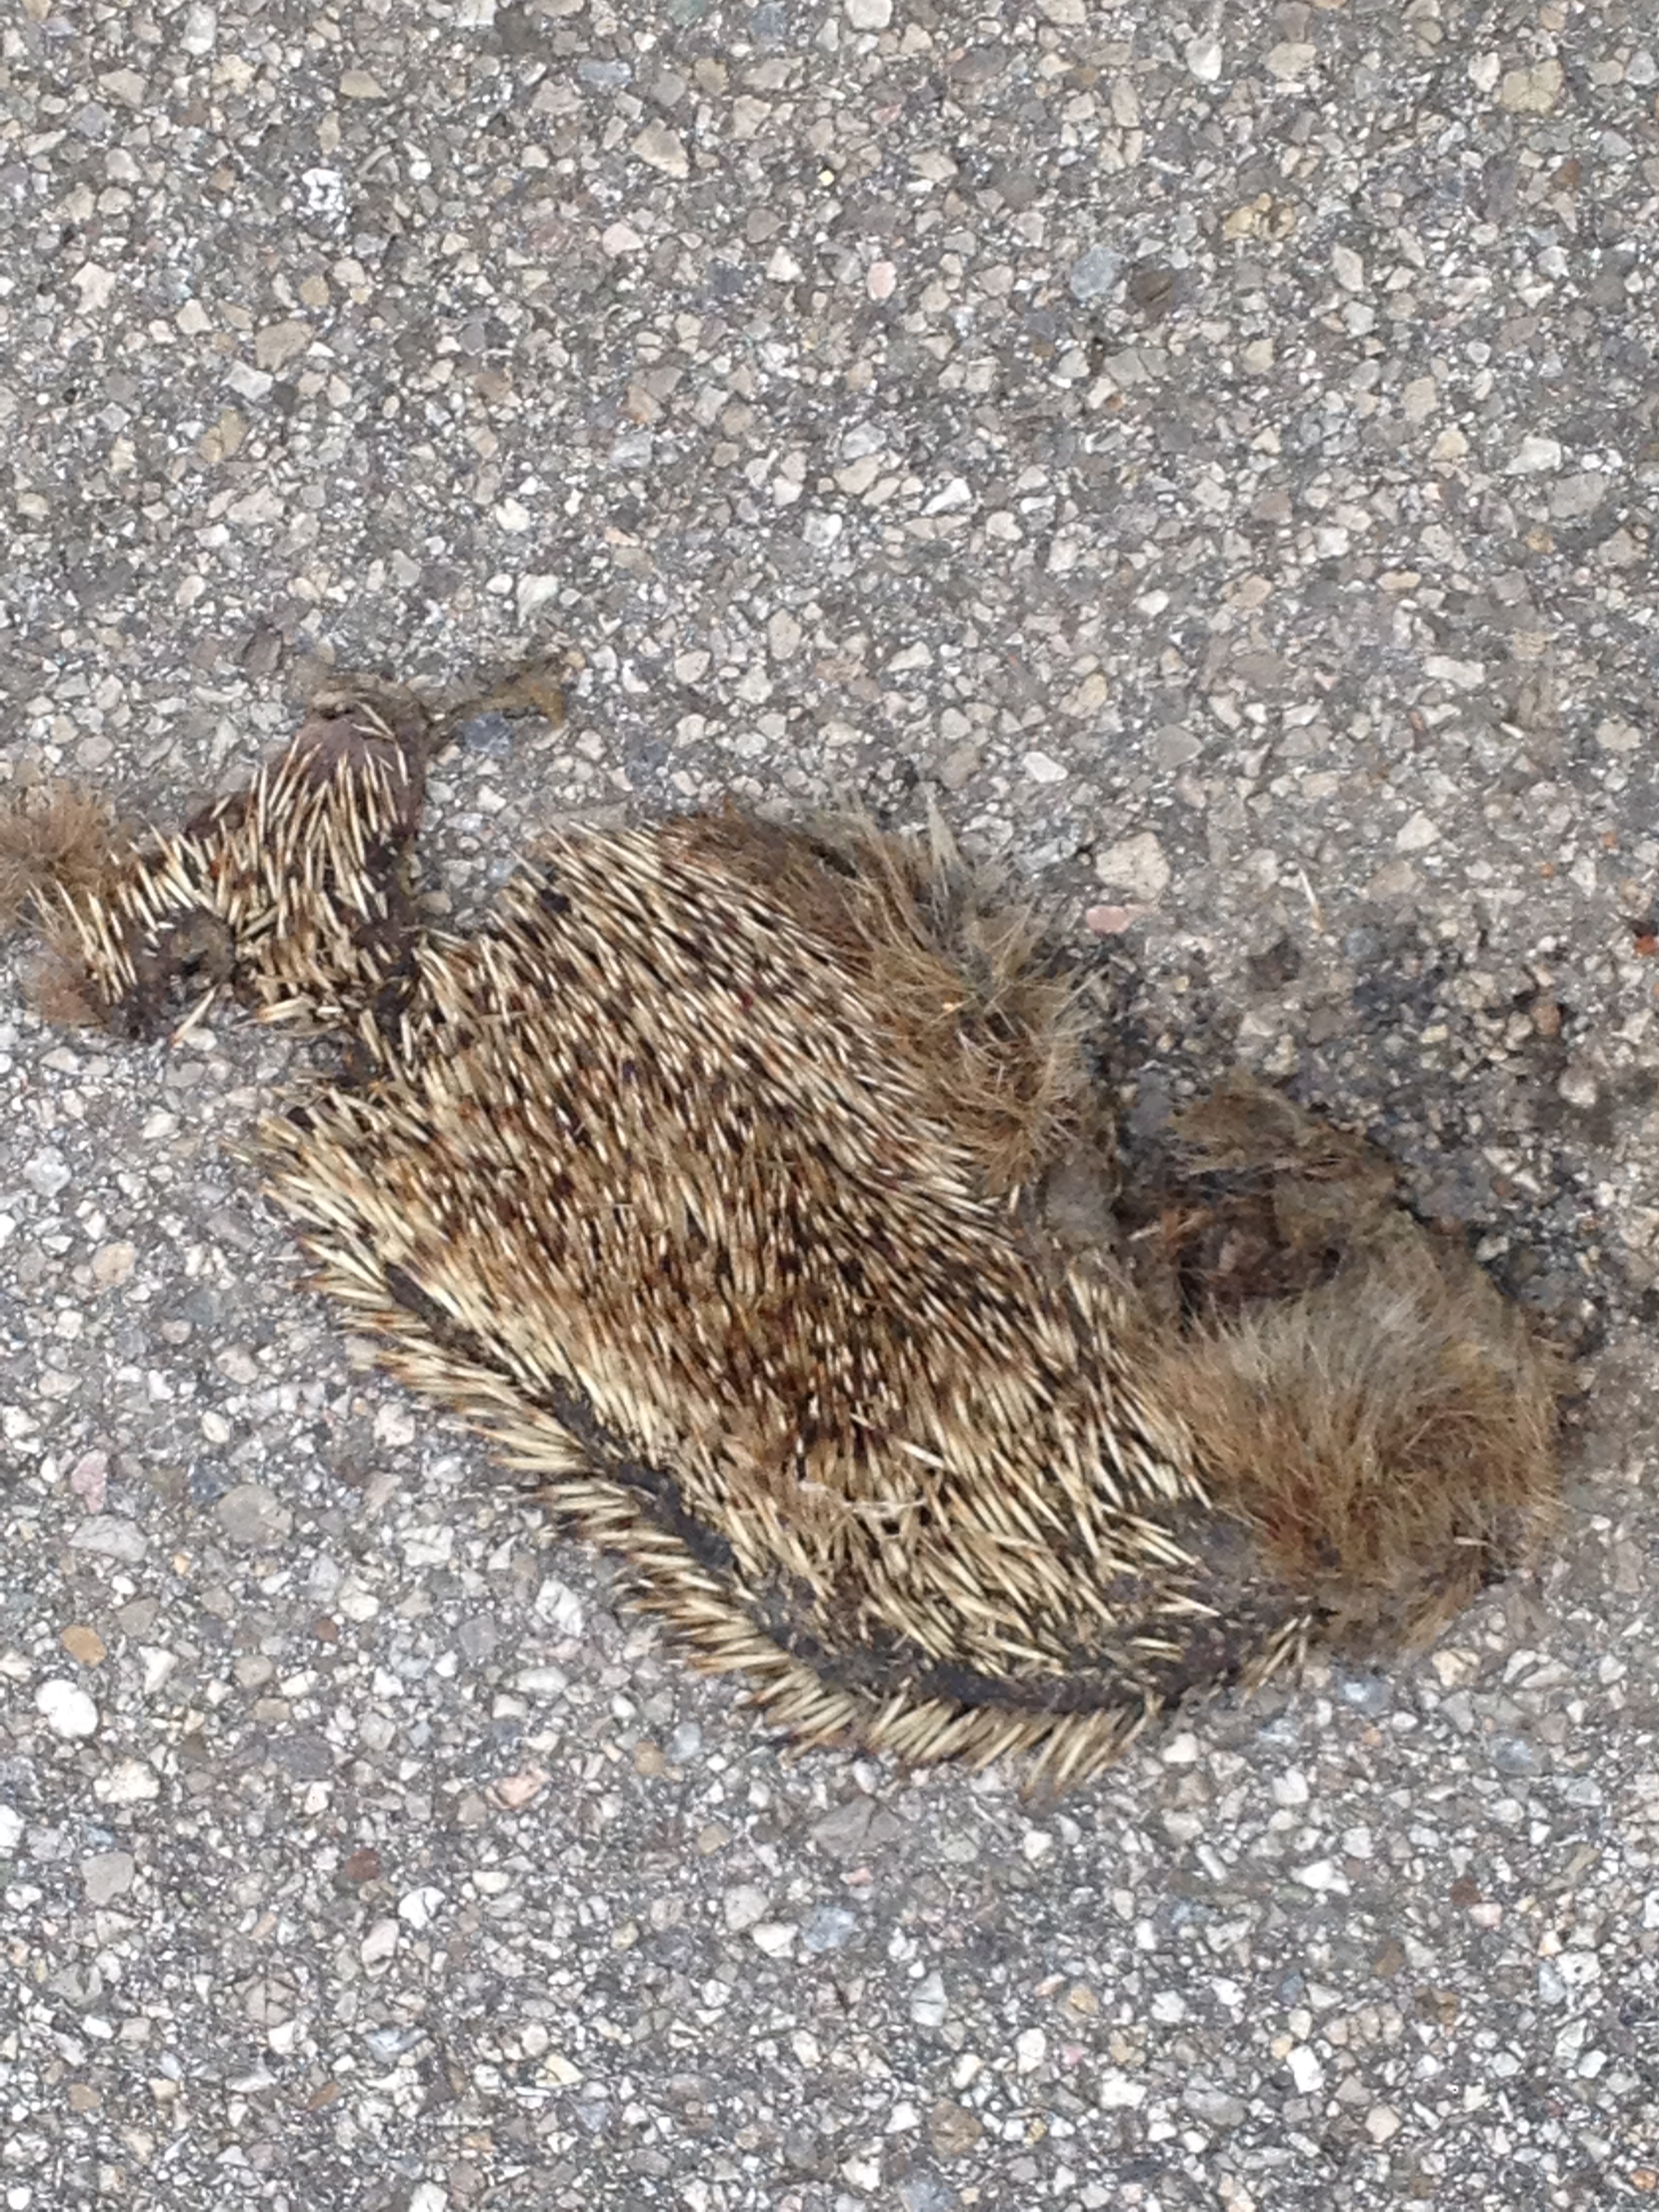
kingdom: Animalia
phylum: Chordata
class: Mammalia
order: Erinaceomorpha
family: Erinaceidae
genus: Erinaceus
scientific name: Erinaceus
